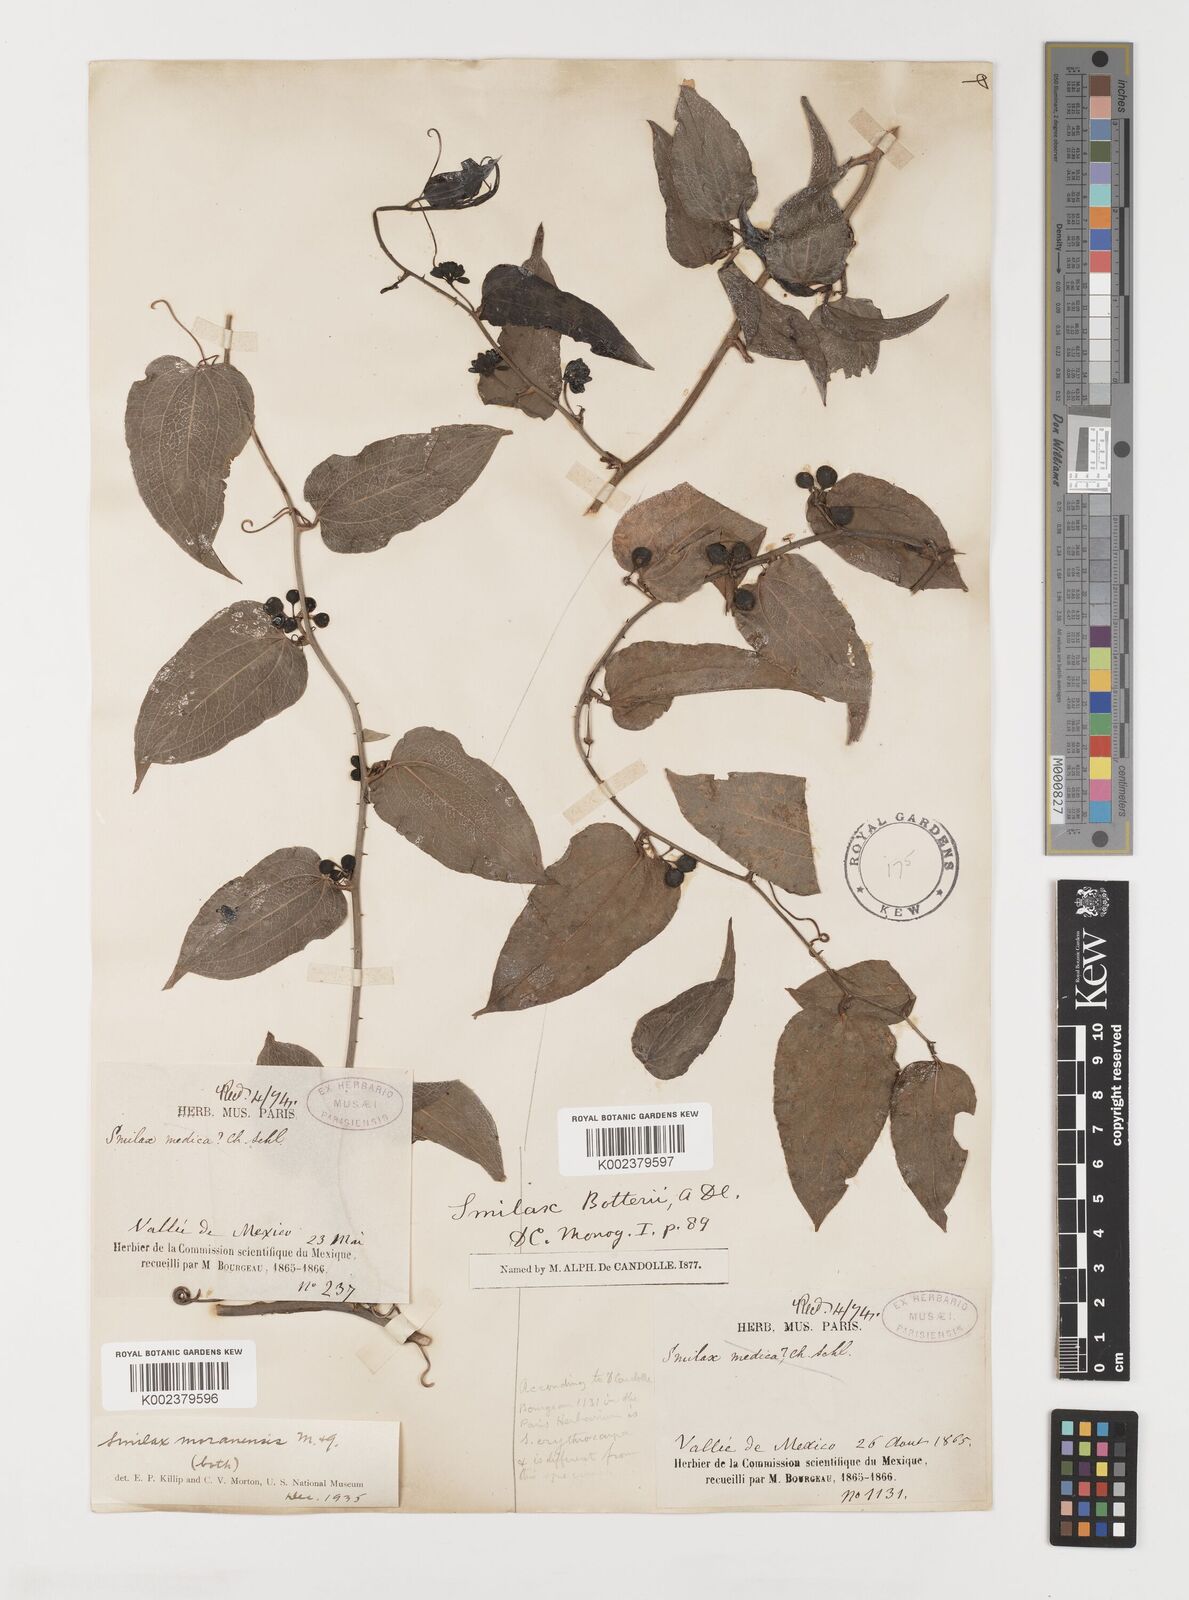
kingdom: Plantae
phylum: Tracheophyta
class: Liliopsida
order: Liliales
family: Smilacaceae
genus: Smilax
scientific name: Smilax moranensis
